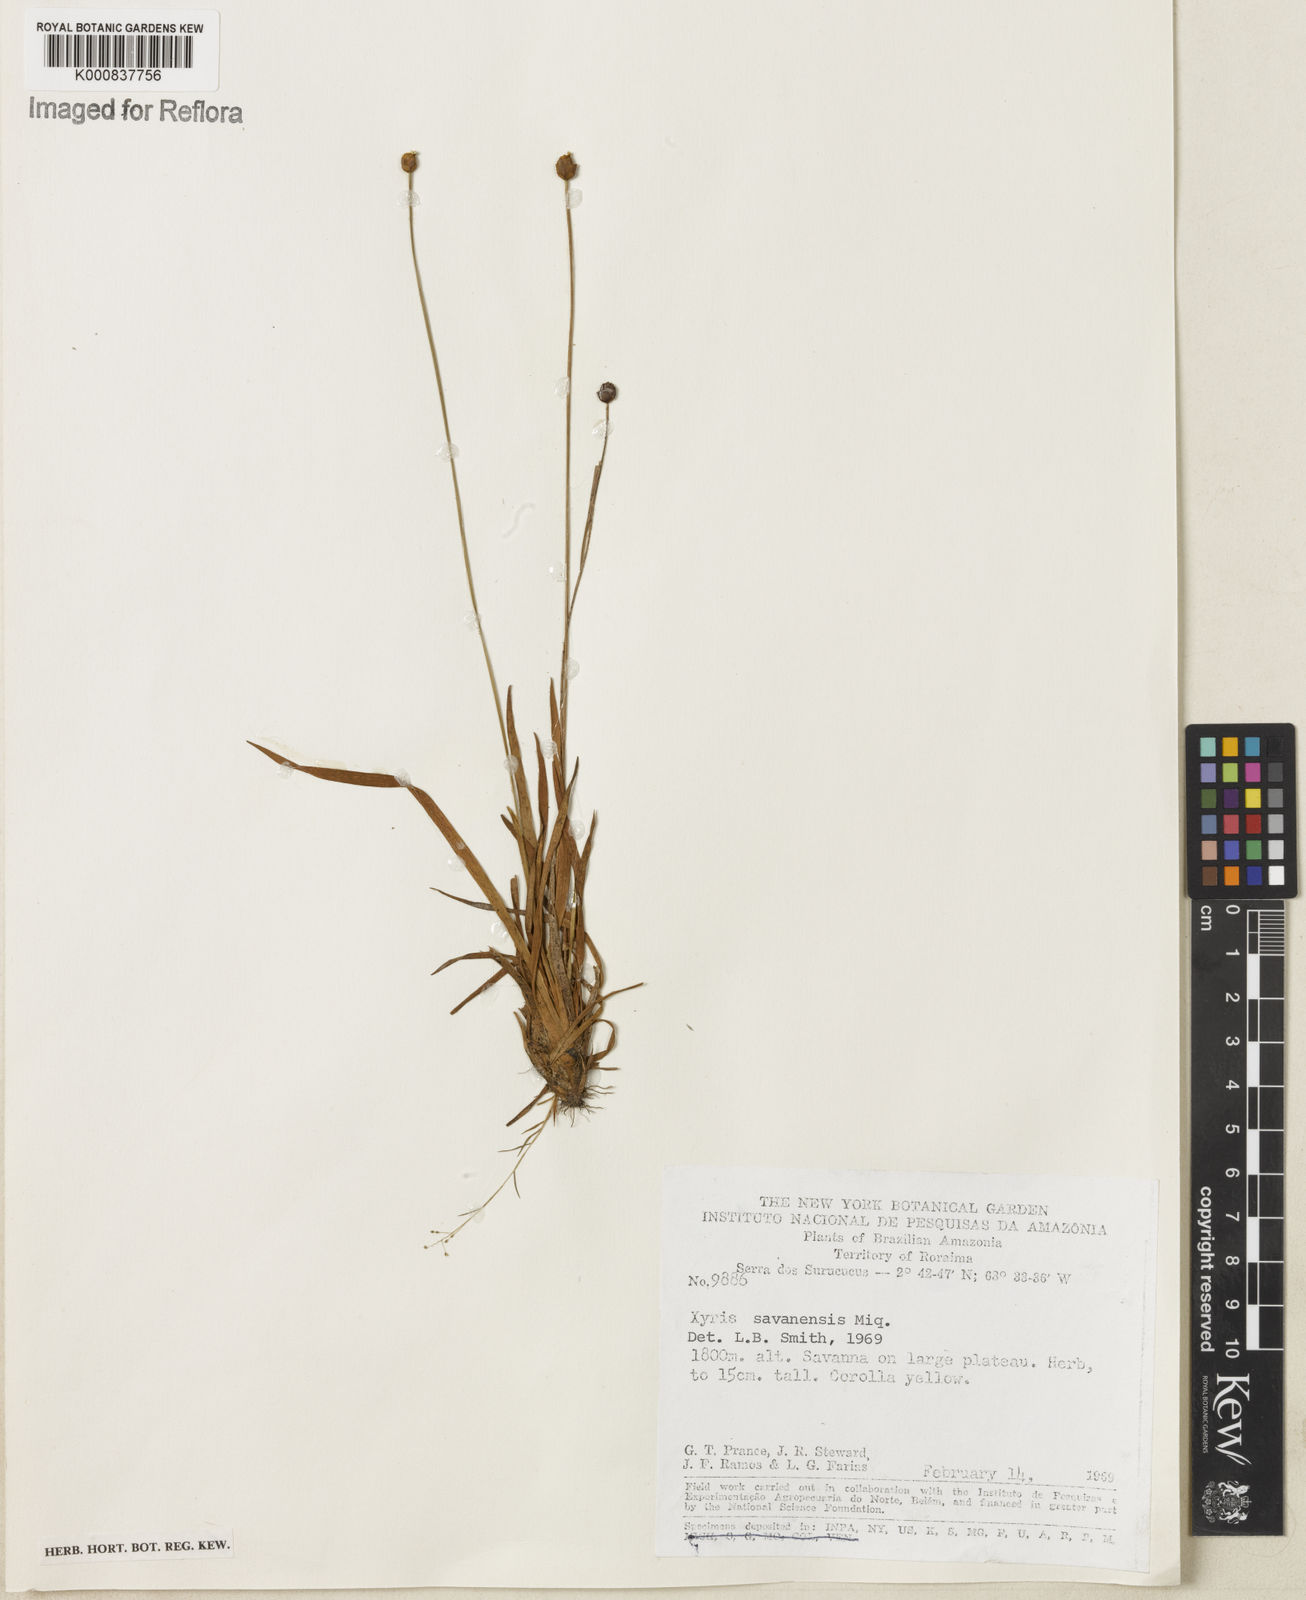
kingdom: Plantae
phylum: Tracheophyta
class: Liliopsida
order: Poales
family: Xyridaceae
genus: Xyris
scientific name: Xyris savanensis
